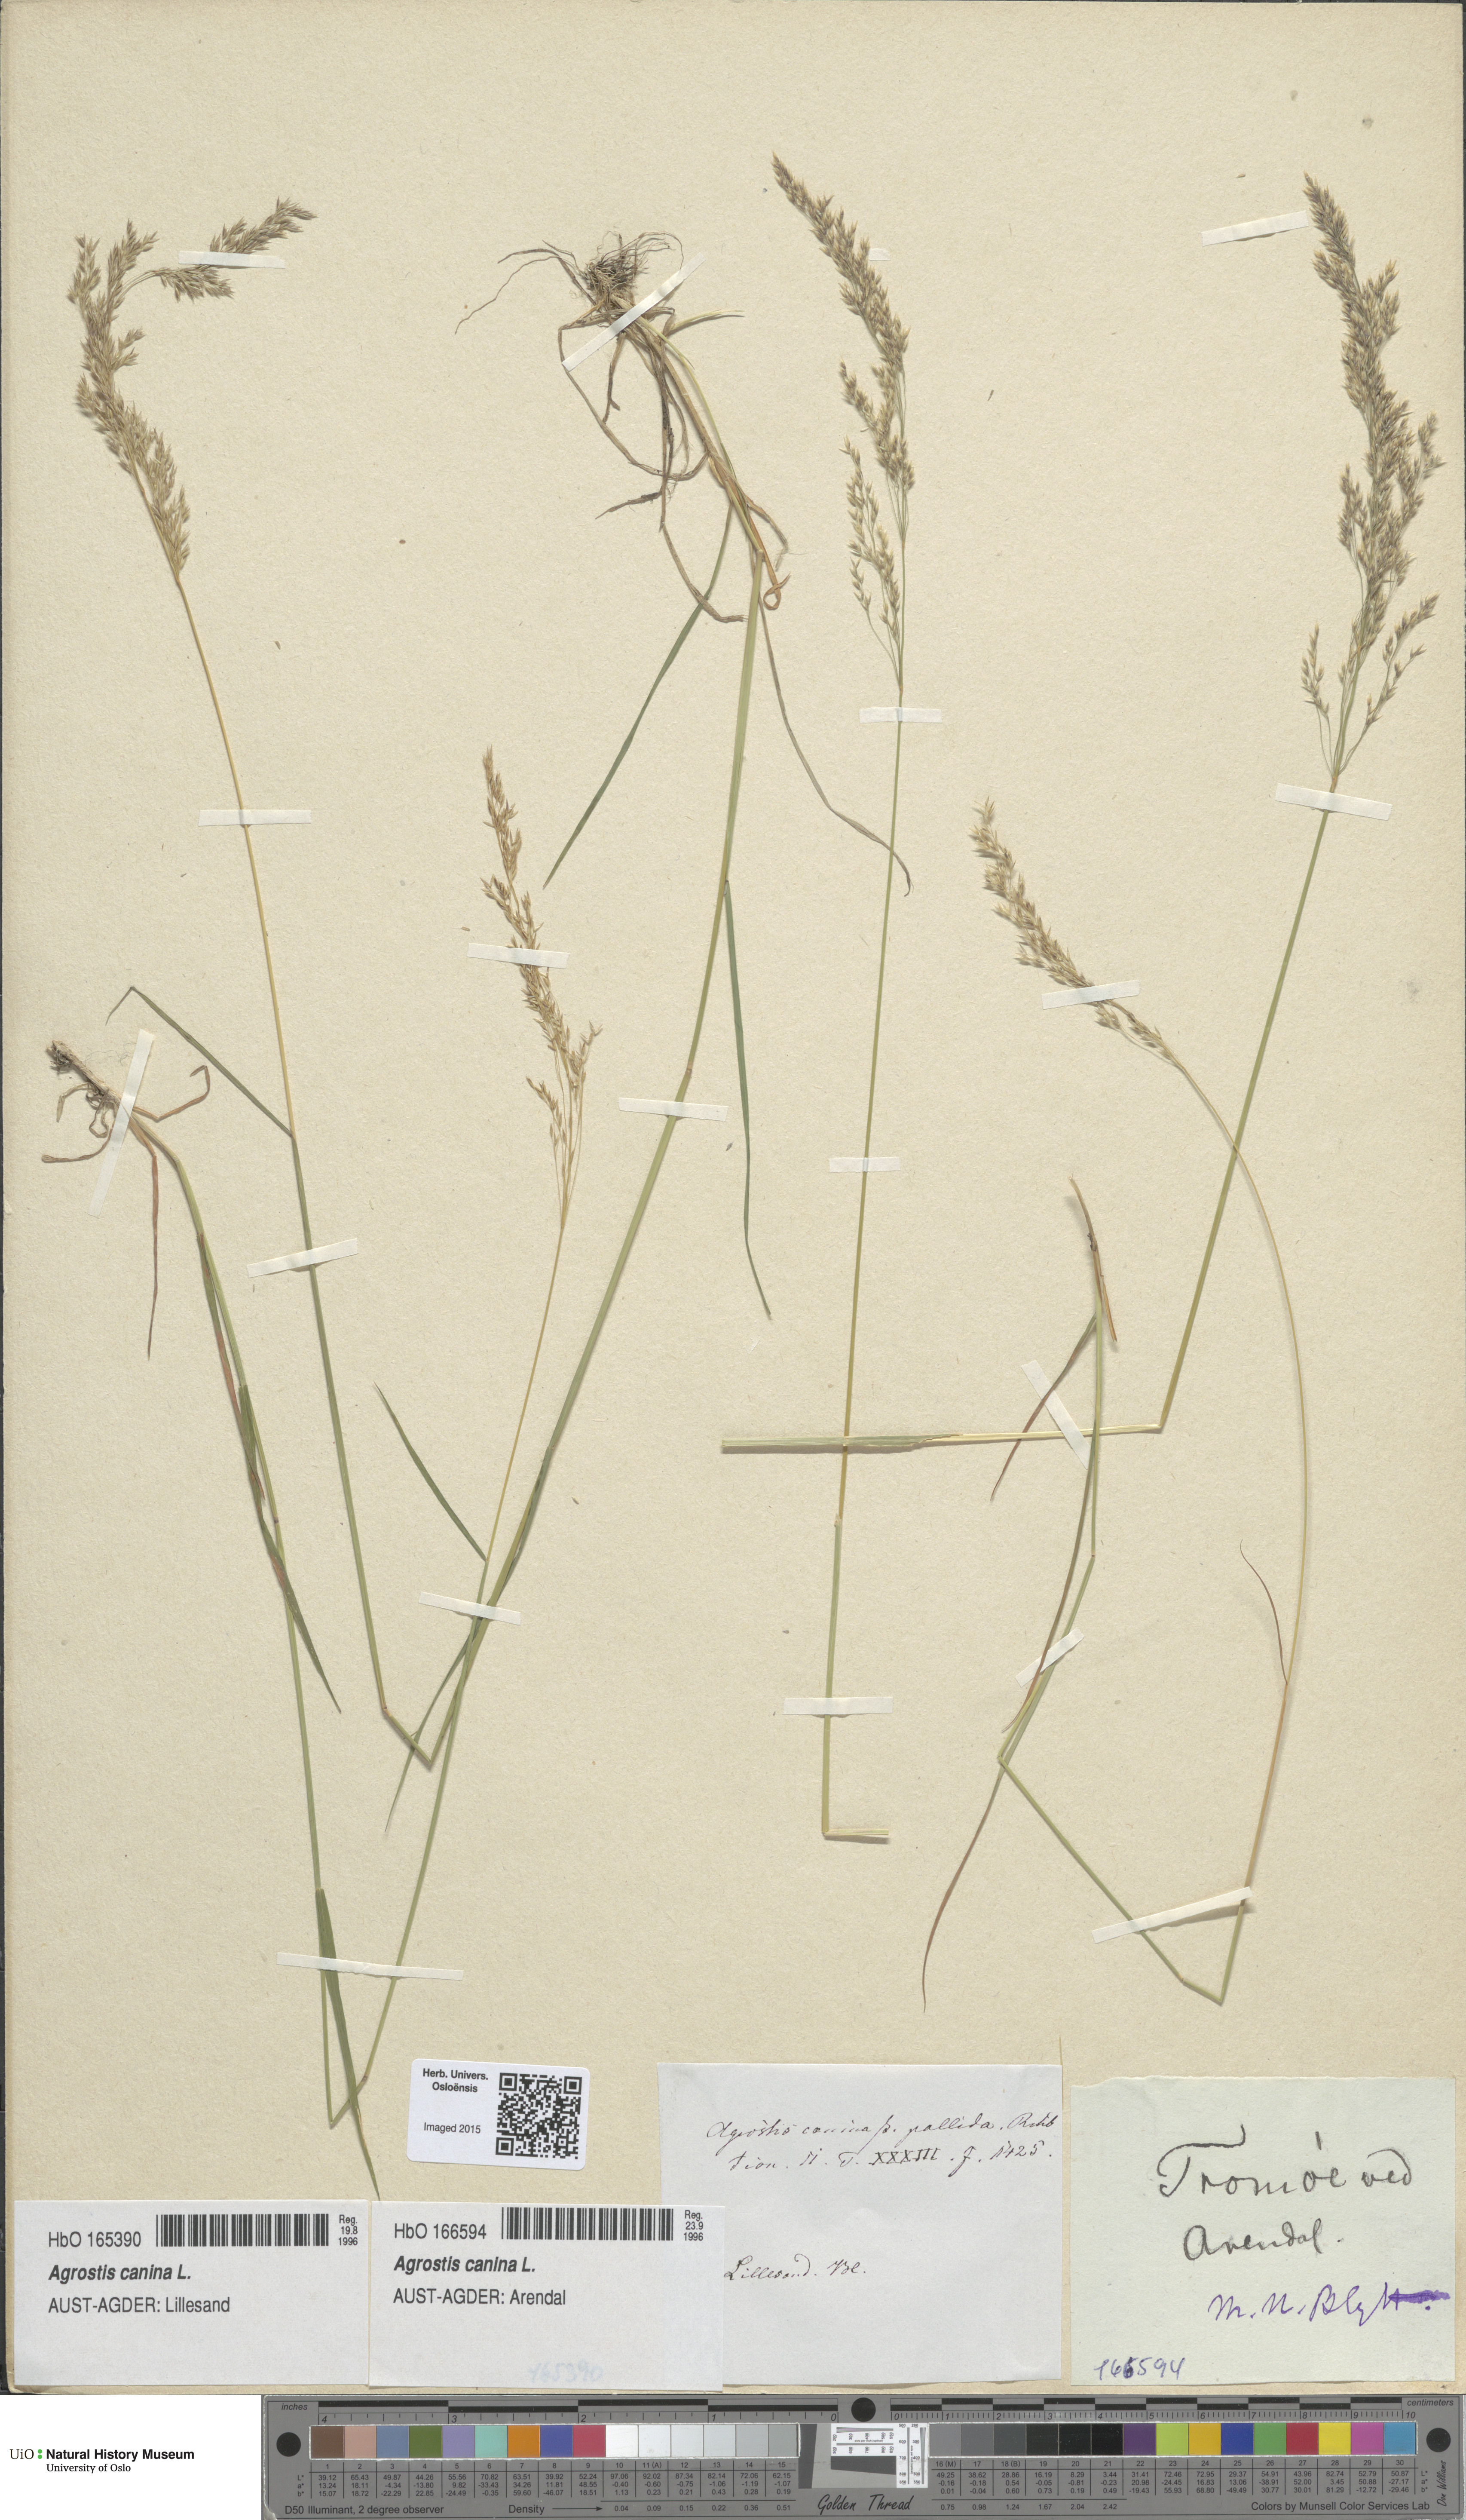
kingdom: Plantae
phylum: Tracheophyta
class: Liliopsida
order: Poales
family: Poaceae
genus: Agrostis
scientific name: Agrostis canina
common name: Velvet bent
